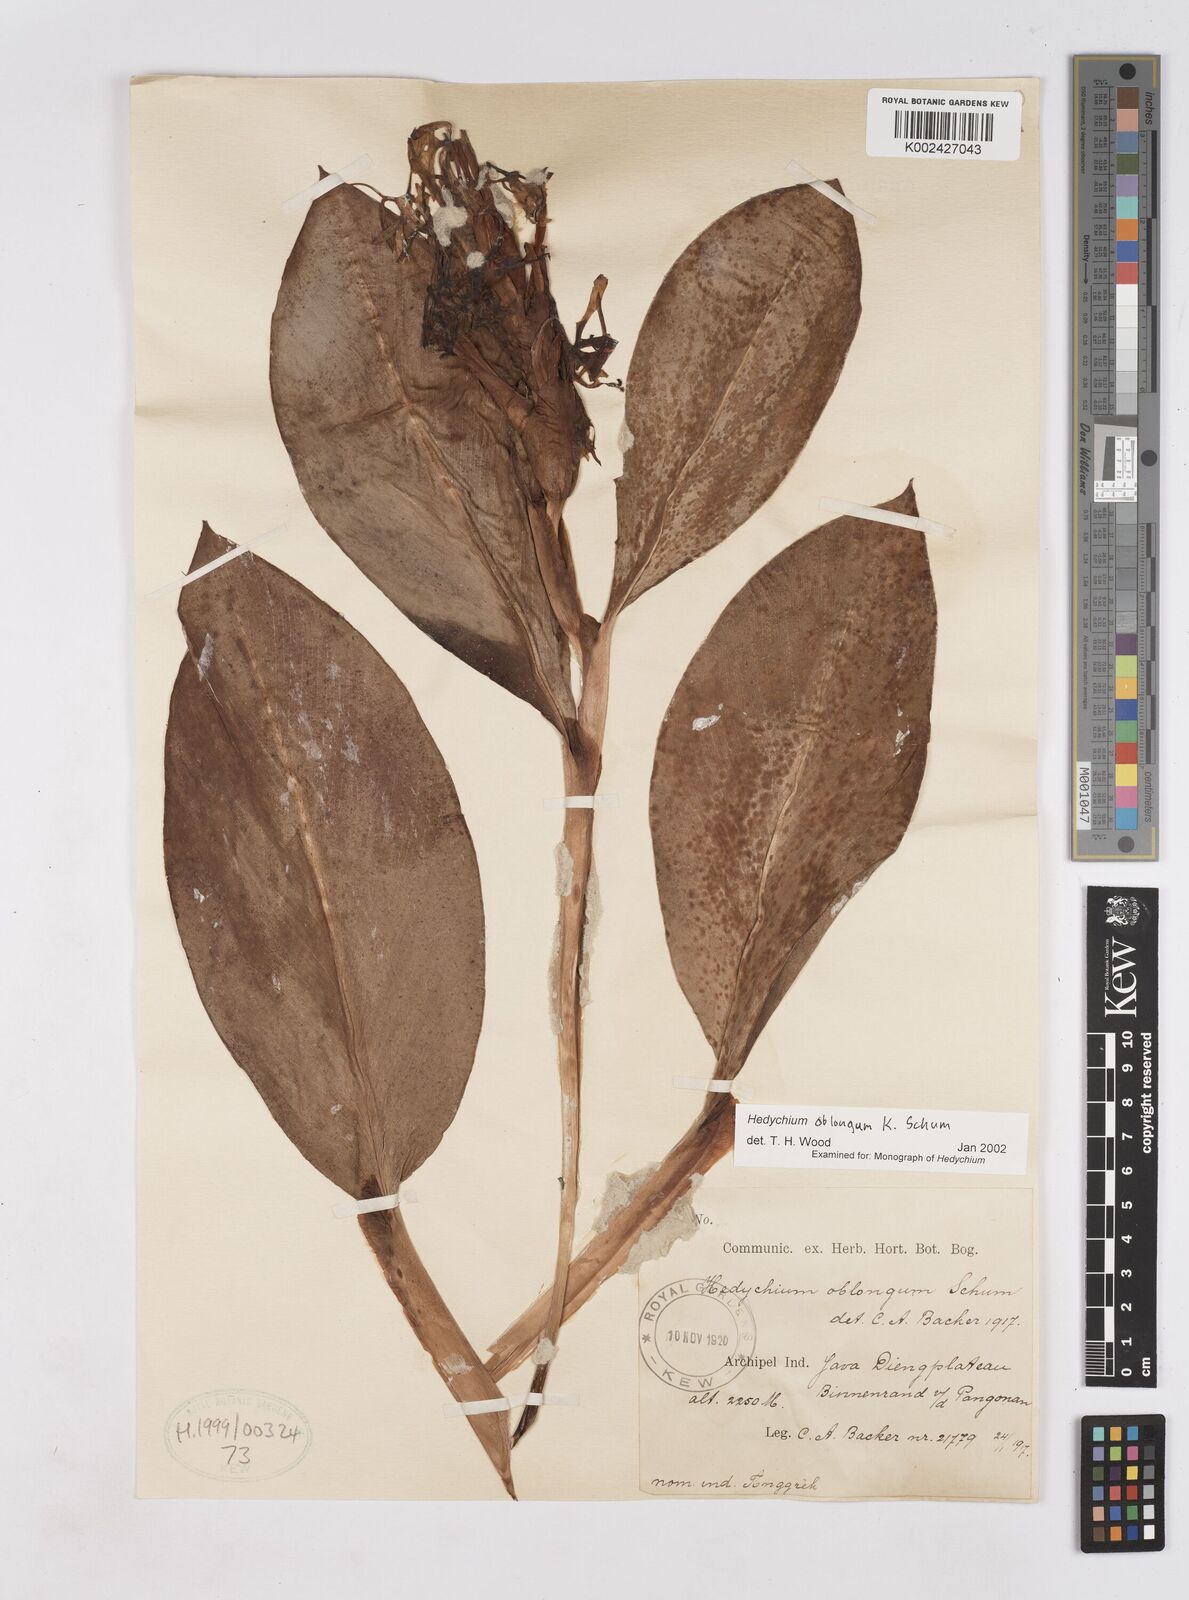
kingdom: Plantae
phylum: Tracheophyta
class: Liliopsida
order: Zingiberales
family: Zingiberaceae
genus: Hedychium
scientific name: Hedychium roxburghii
